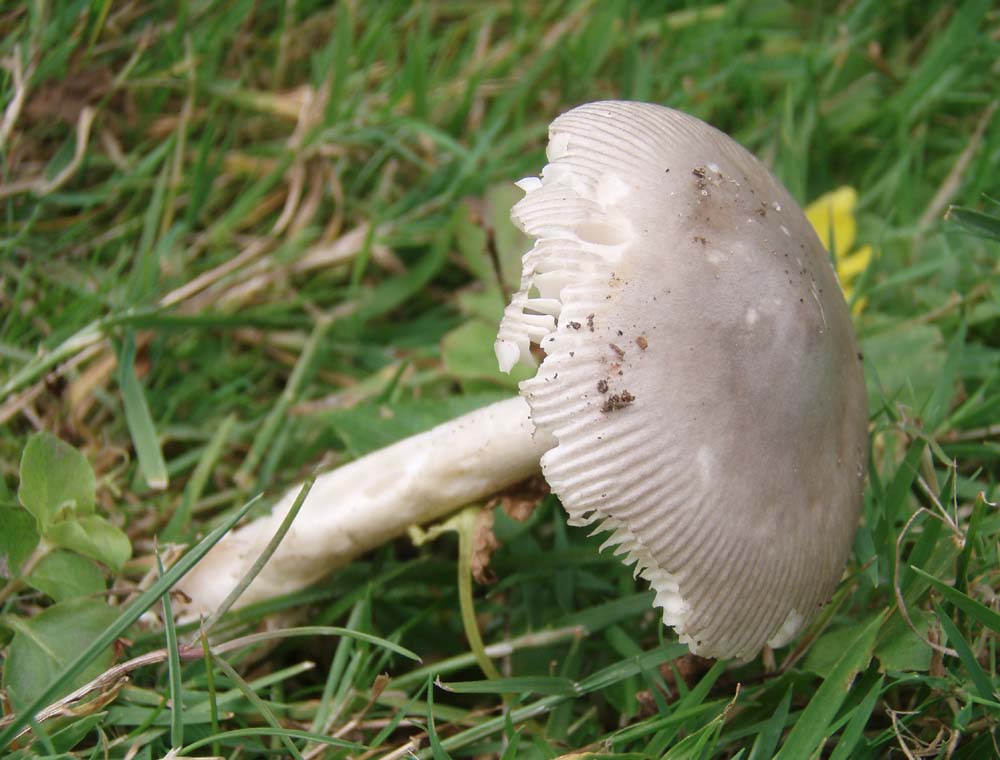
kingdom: Fungi
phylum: Basidiomycota
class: Agaricomycetes
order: Agaricales
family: Amanitaceae
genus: Amanita
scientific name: Amanita vaginata
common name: grå kam-fluesvamp
